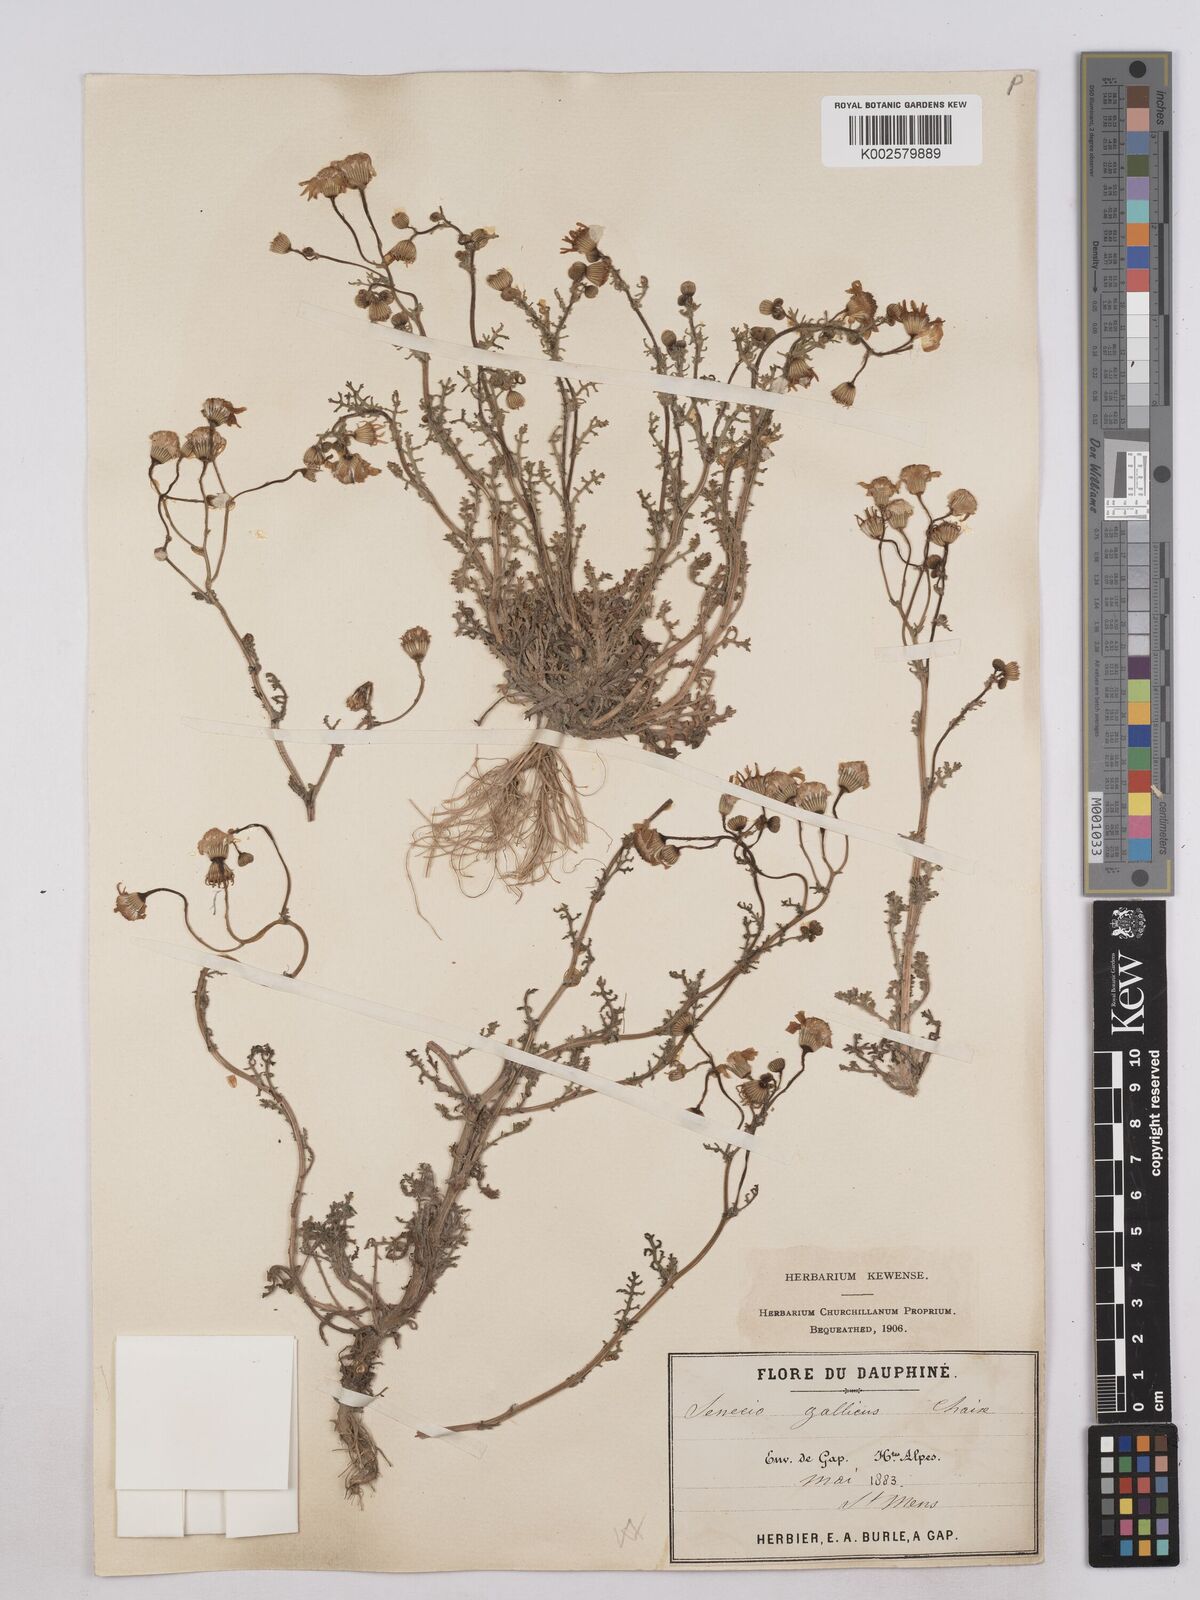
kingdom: Plantae
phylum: Tracheophyta
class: Magnoliopsida
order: Asterales
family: Asteraceae
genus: Senecio
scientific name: Senecio gallicus
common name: French groundsel
